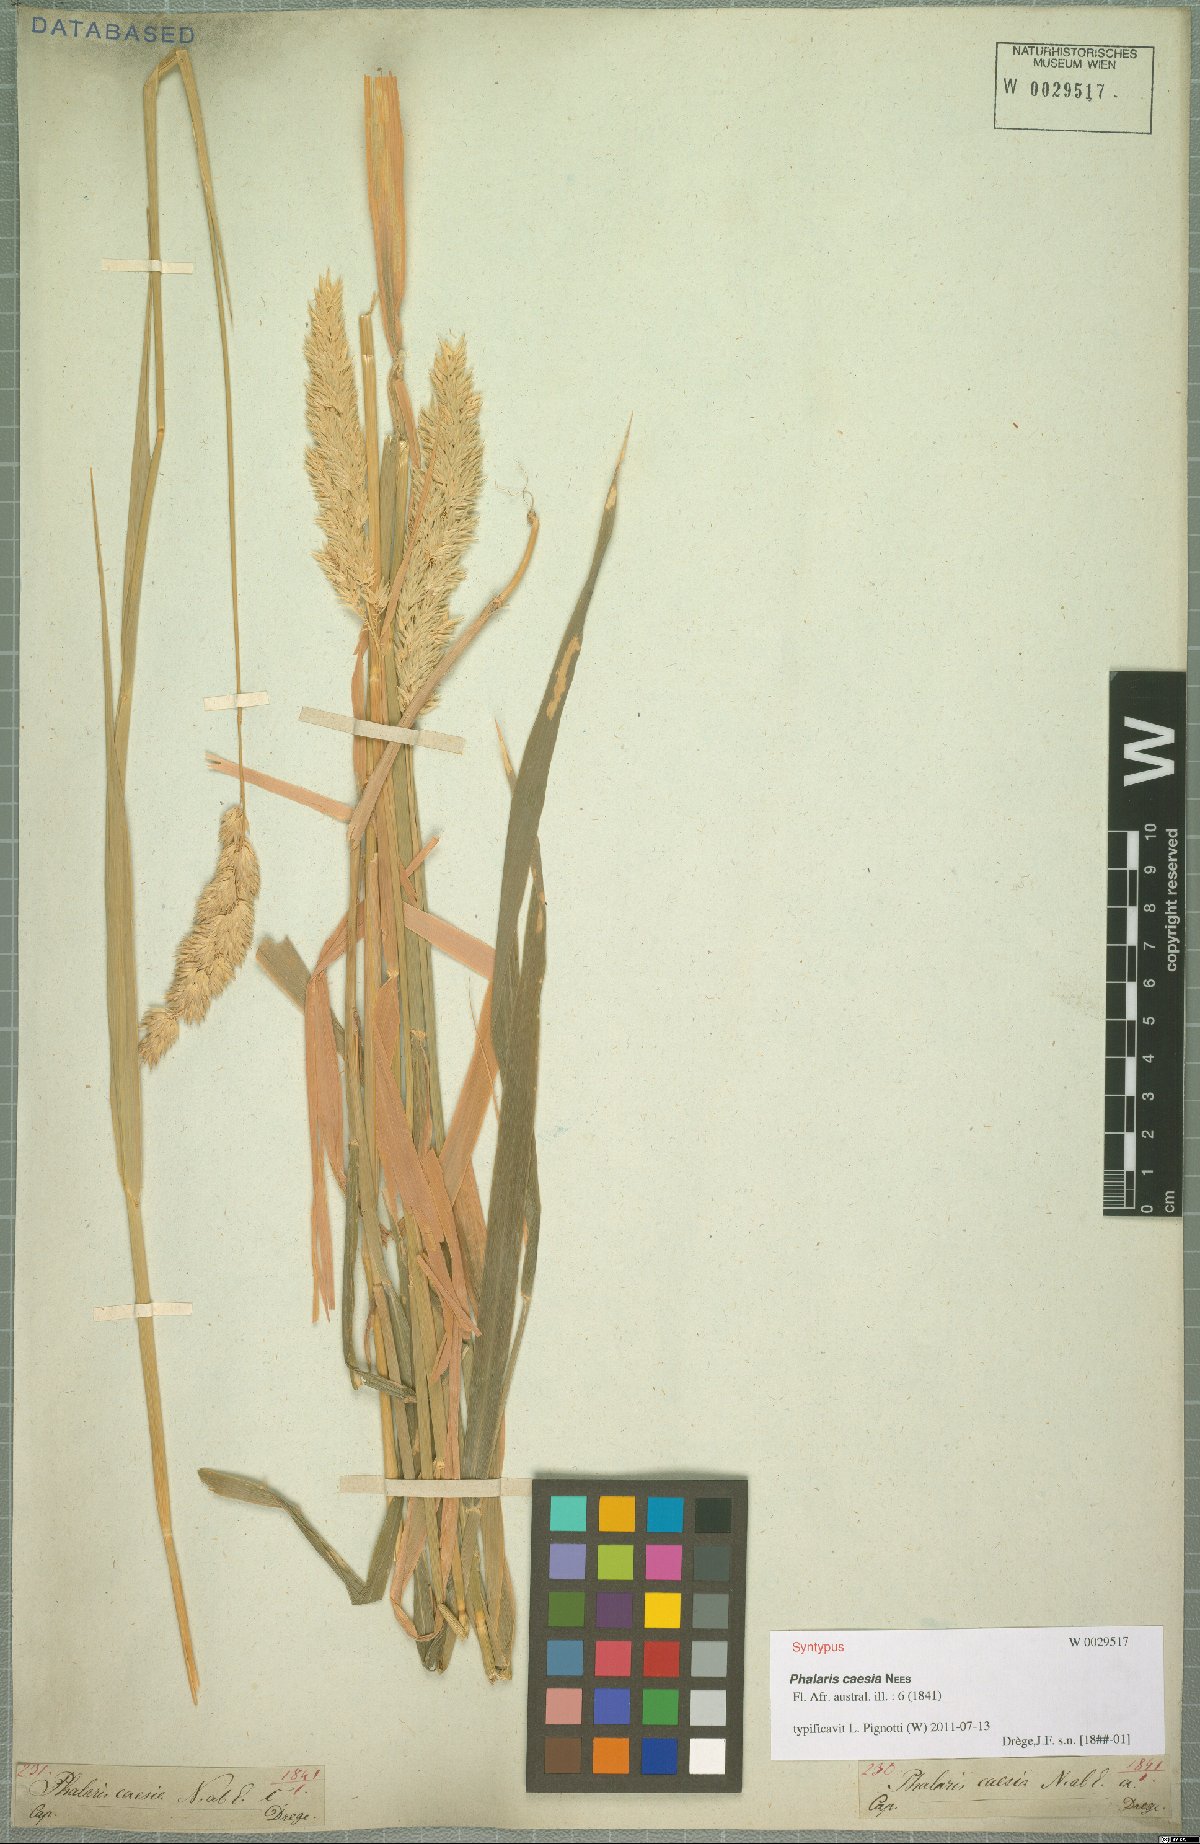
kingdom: Plantae
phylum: Tracheophyta
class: Liliopsida
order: Poales
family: Poaceae
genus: Phalaris
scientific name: Phalaris arundinacea
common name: Reed canary-grass
